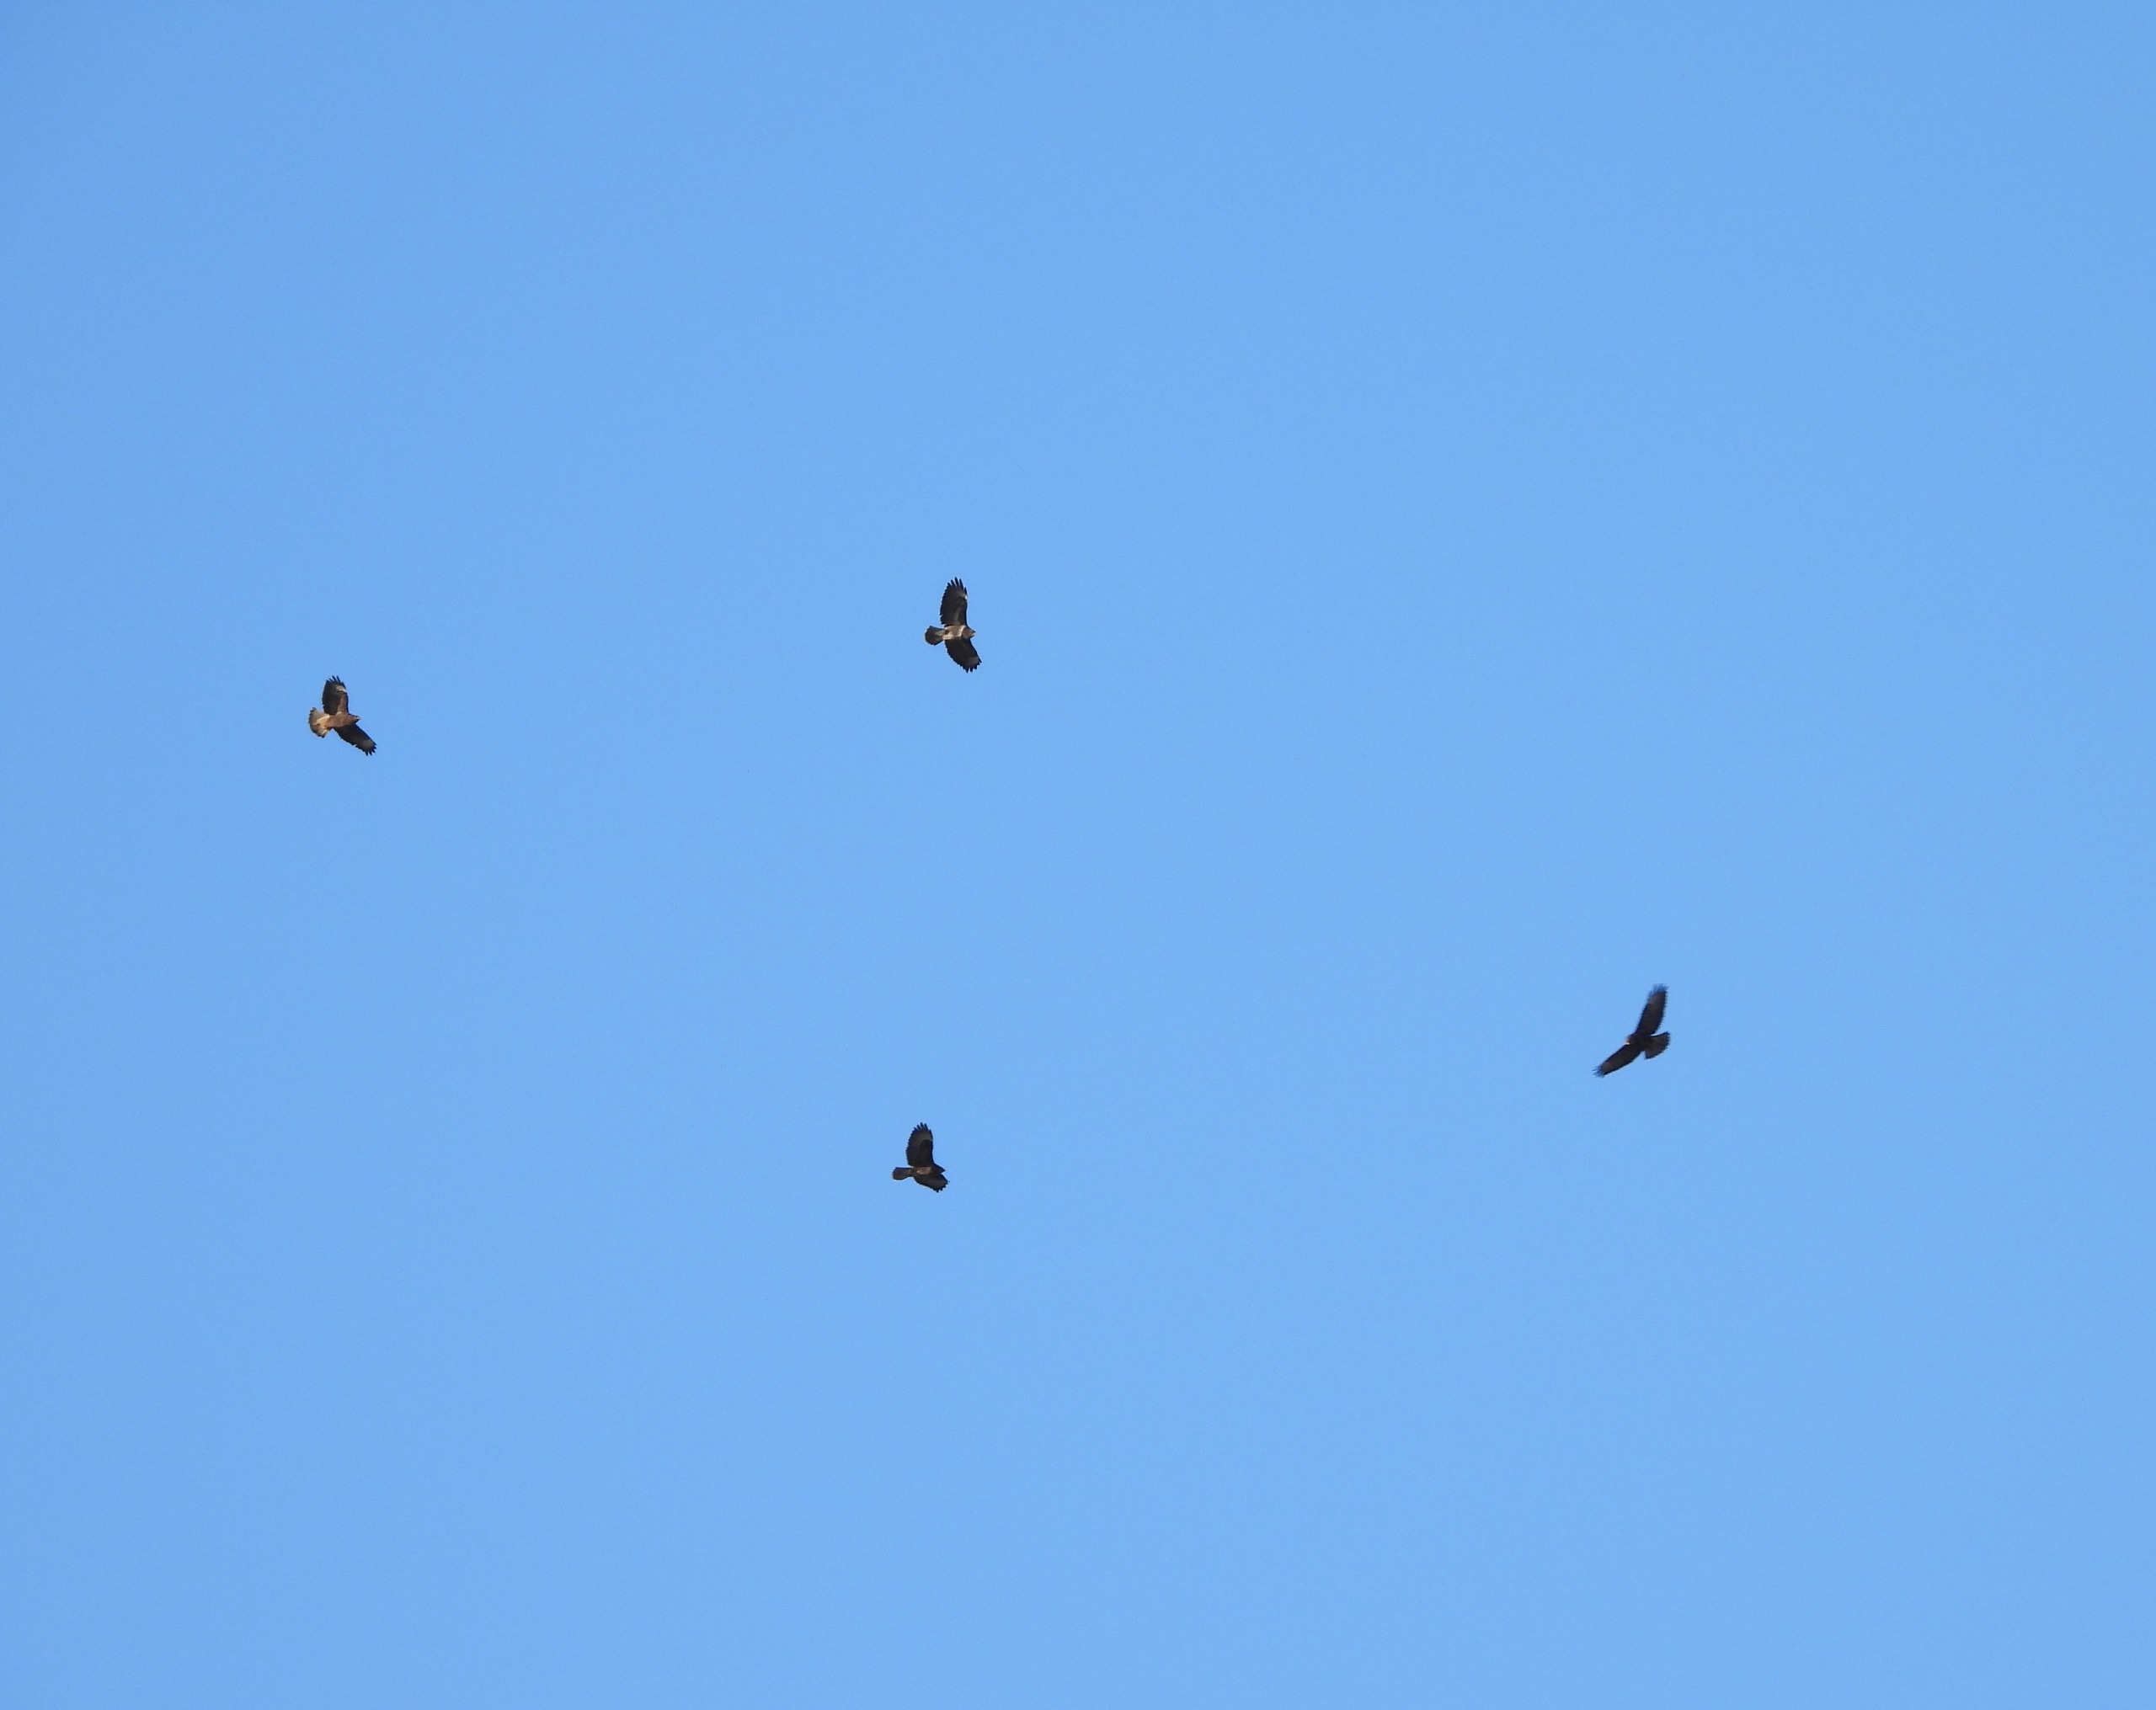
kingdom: Animalia
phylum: Chordata
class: Aves
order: Accipitriformes
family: Accipitridae
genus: Buteo
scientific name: Buteo buteo
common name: Musvåge
